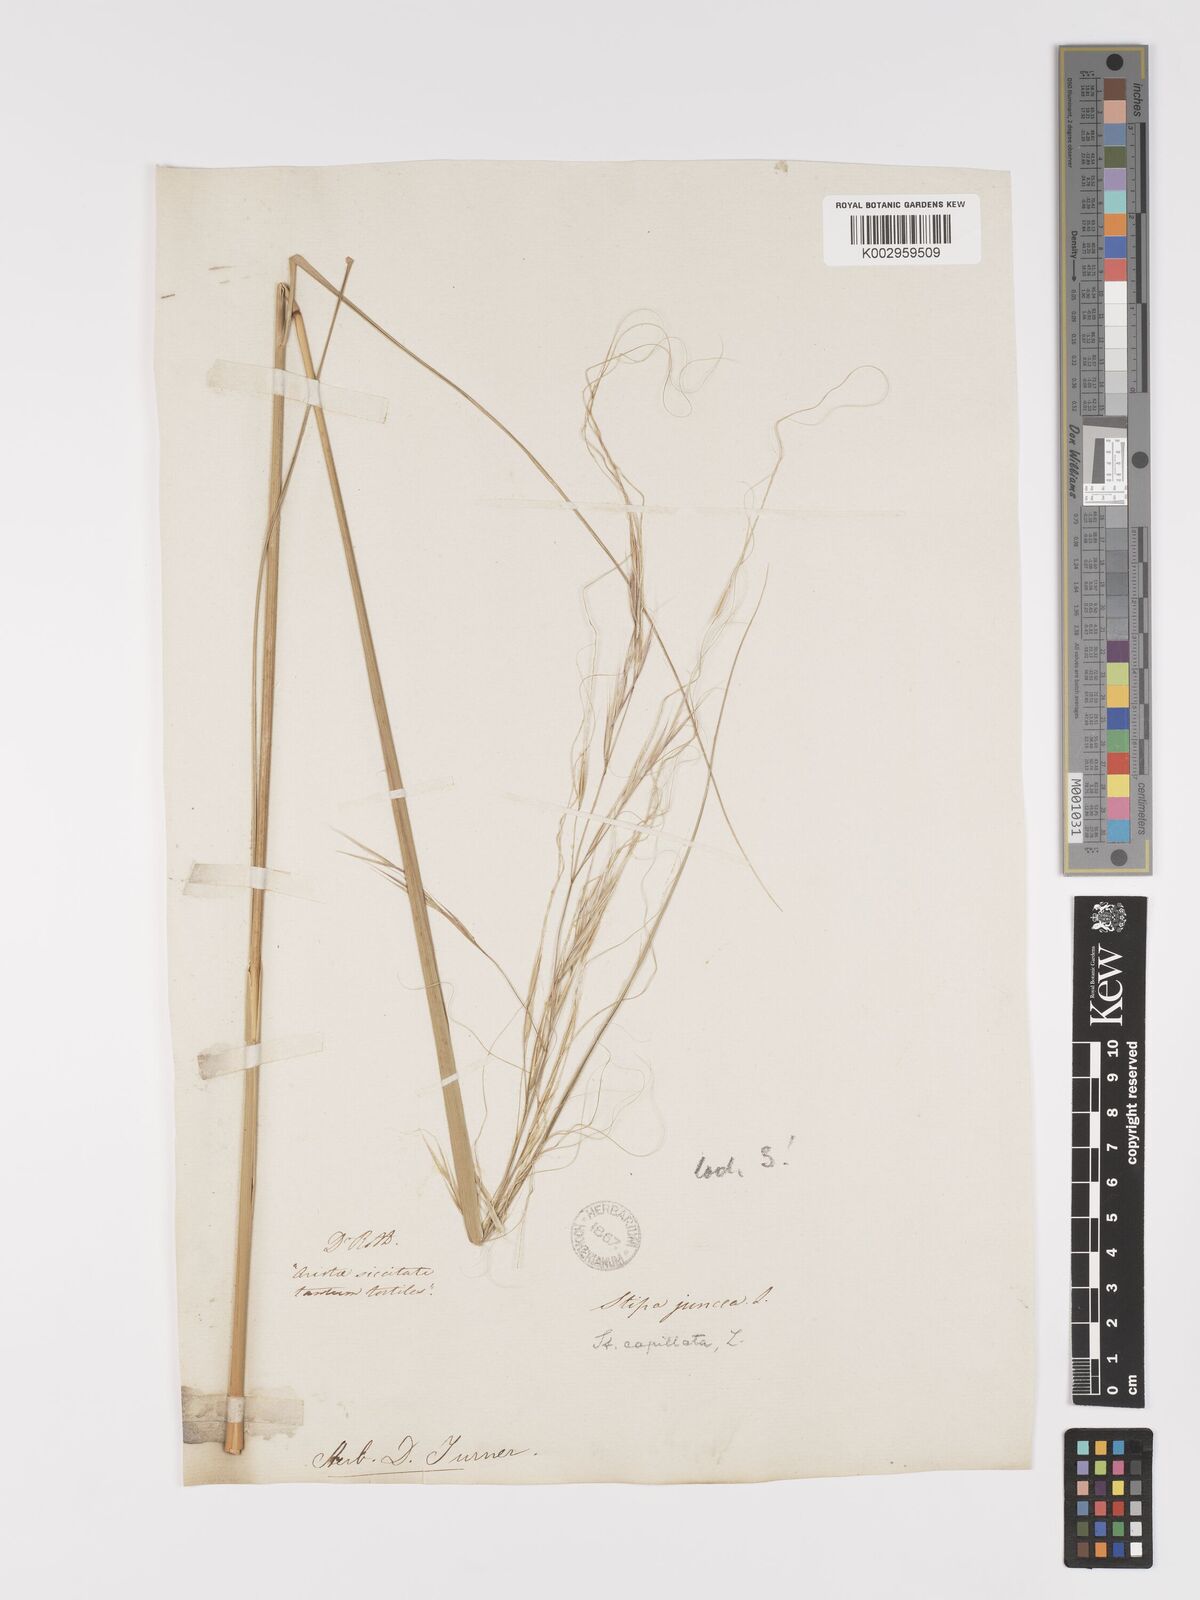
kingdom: Plantae
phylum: Tracheophyta
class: Liliopsida
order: Poales
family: Poaceae
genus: Stipa
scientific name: Stipa capillata
